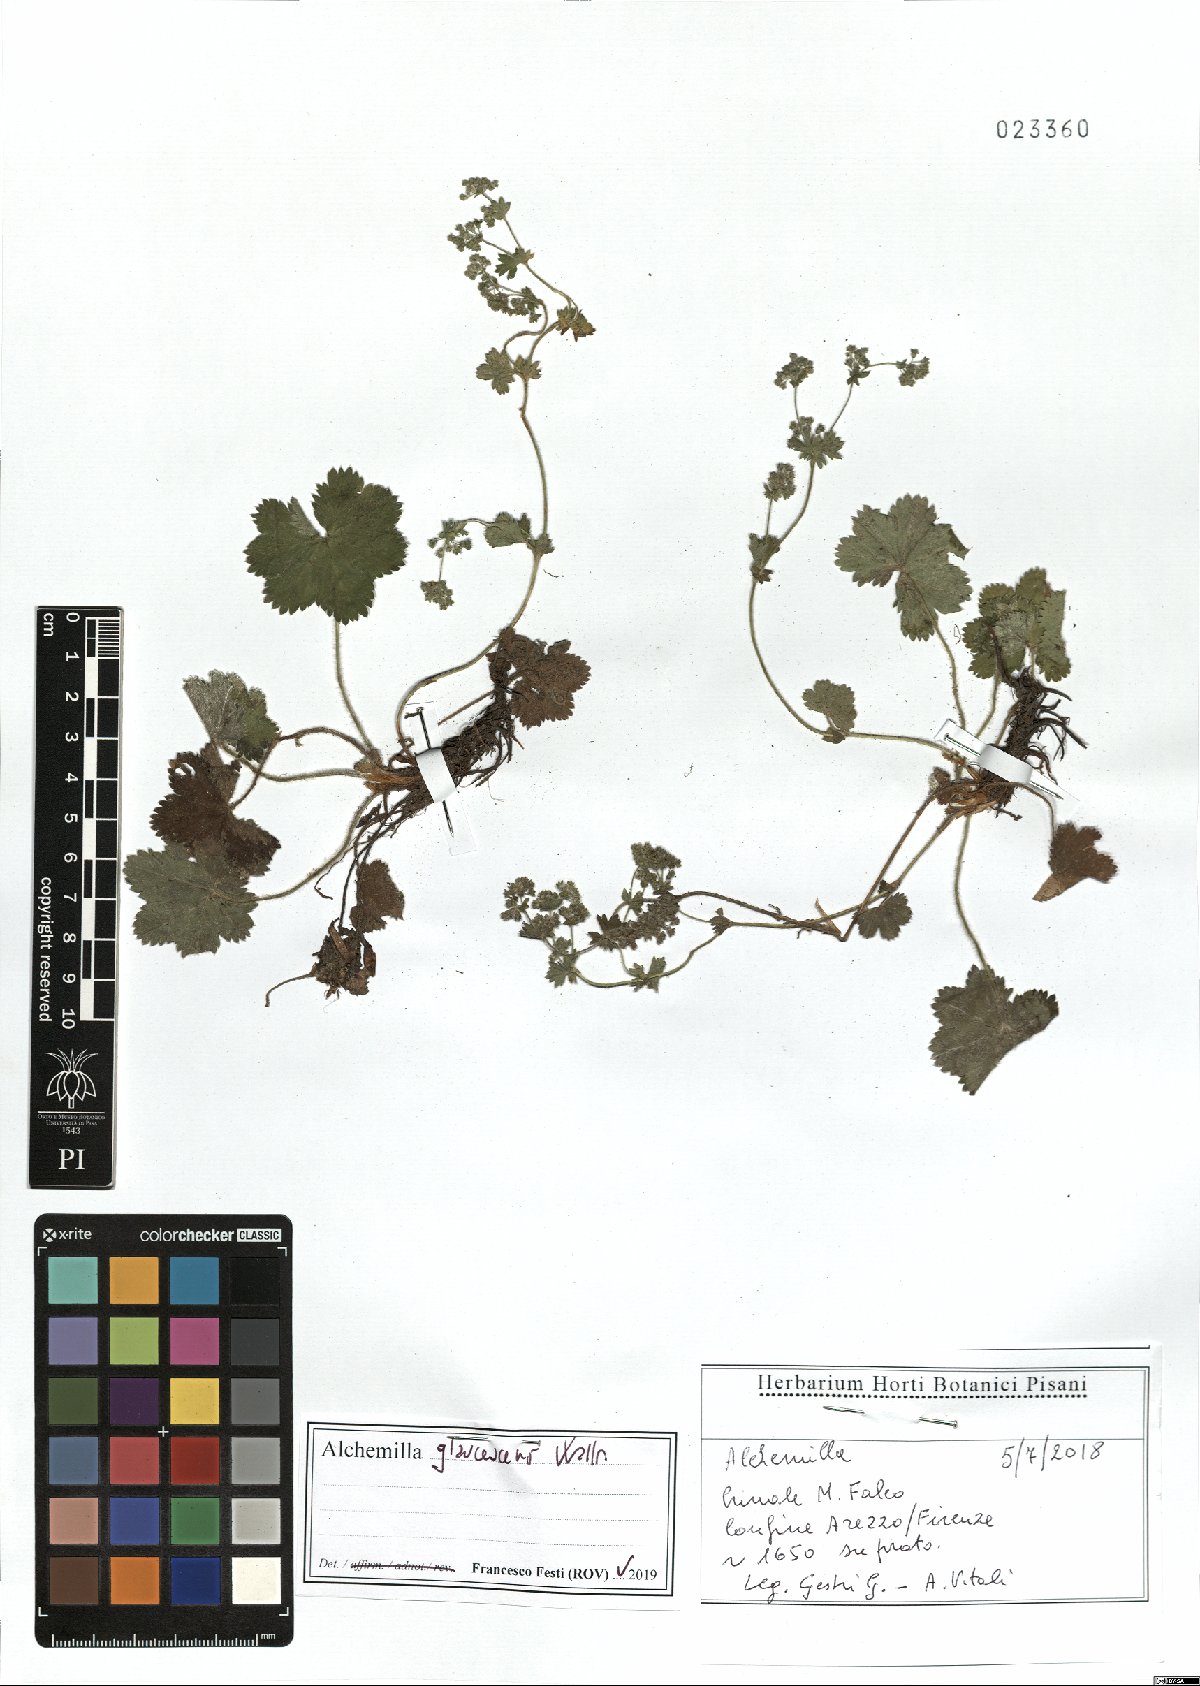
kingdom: Plantae
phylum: Tracheophyta
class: Magnoliopsida
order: Rosales
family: Rosaceae
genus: Alchemilla
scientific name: Alchemilla glaucescens
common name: Silky lady's mantle
